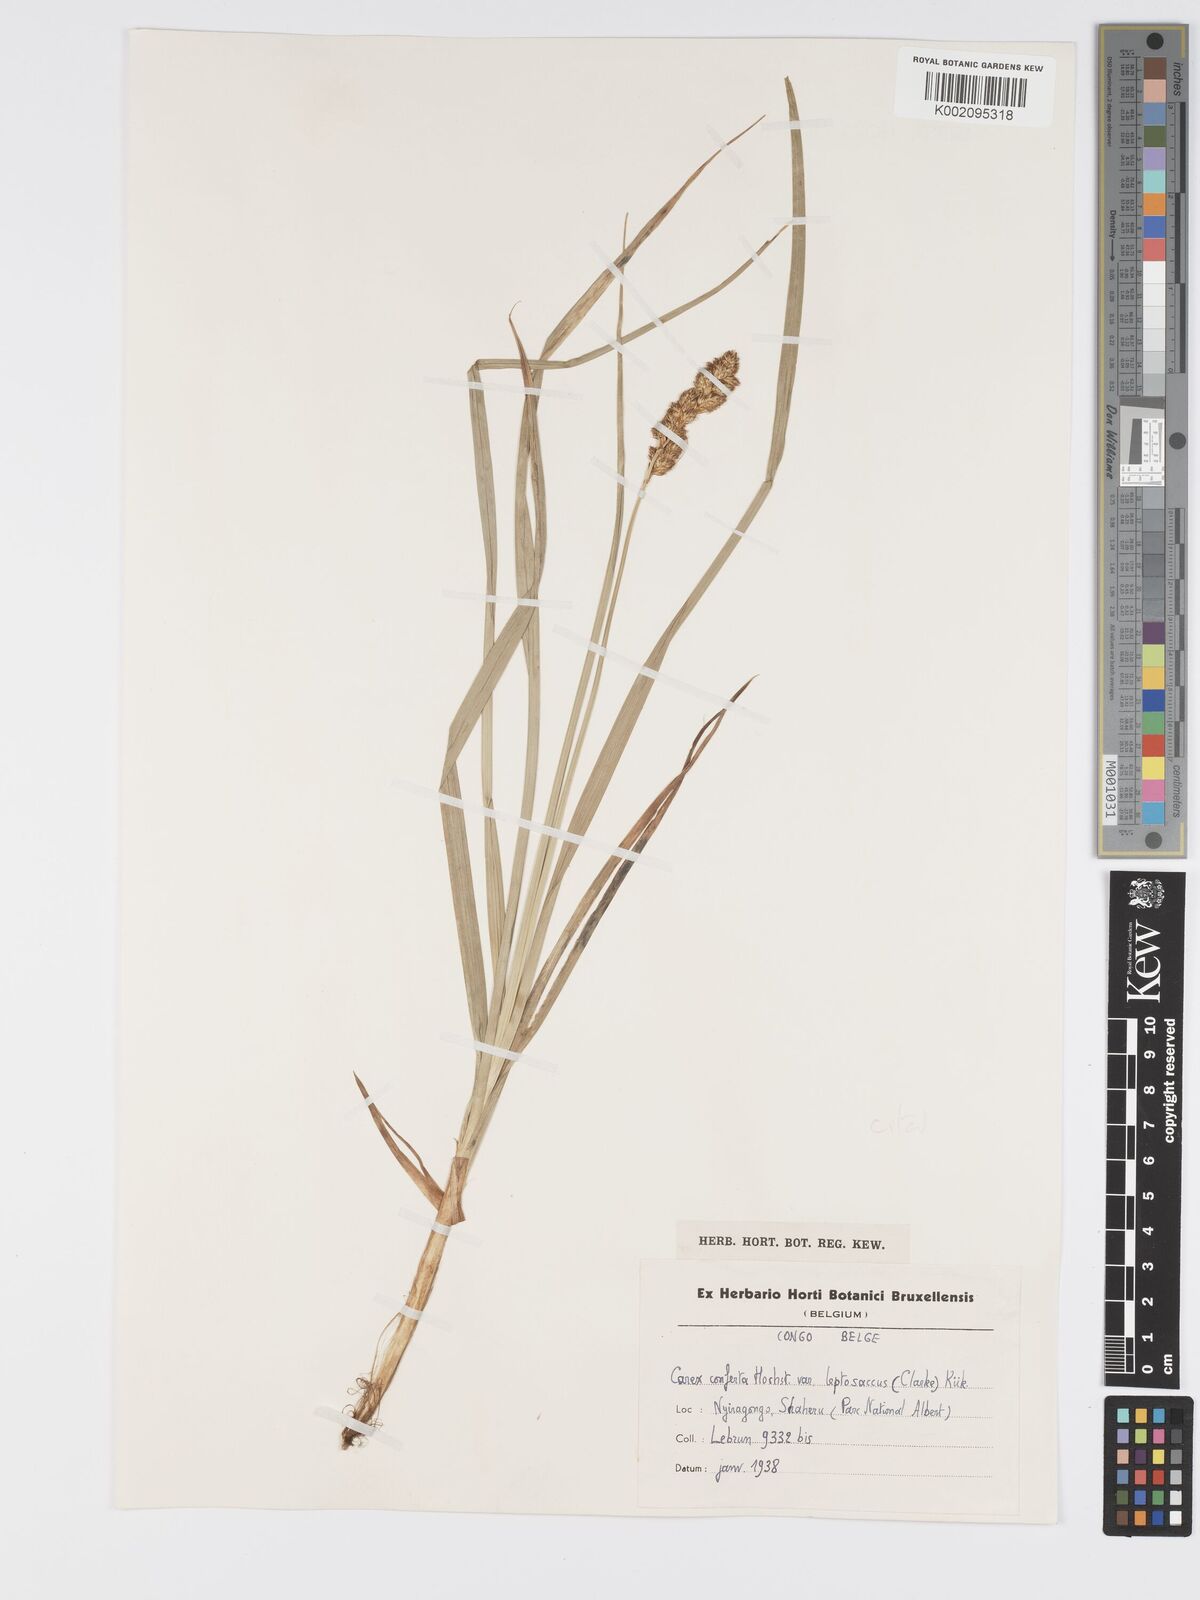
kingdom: Plantae
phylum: Tracheophyta
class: Liliopsida
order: Poales
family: Cyperaceae
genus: Carex
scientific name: Carex lycurus
